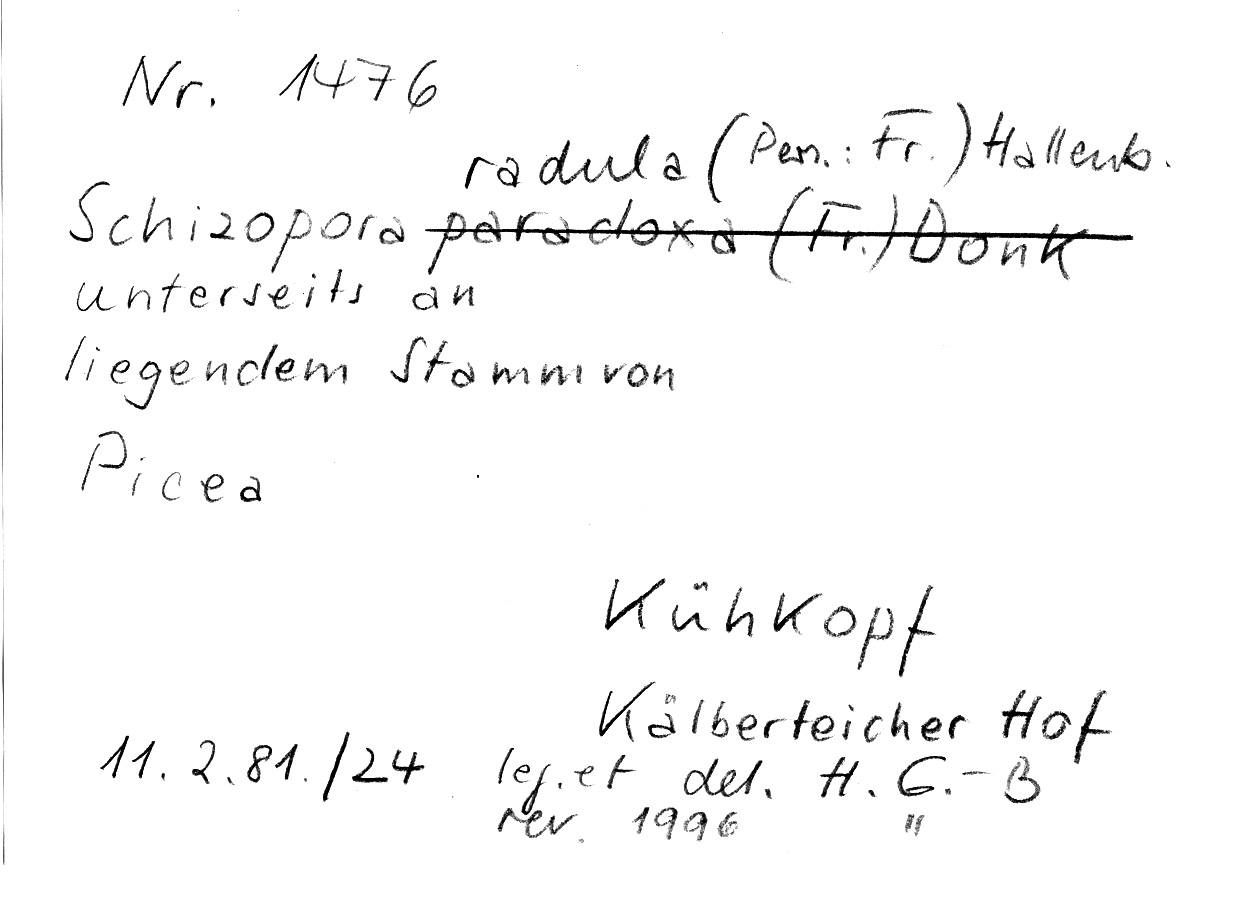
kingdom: Fungi
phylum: Basidiomycota
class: Agaricomycetes
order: Hymenochaetales
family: Schizoporaceae
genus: Xylodon
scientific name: Xylodon raduloides
